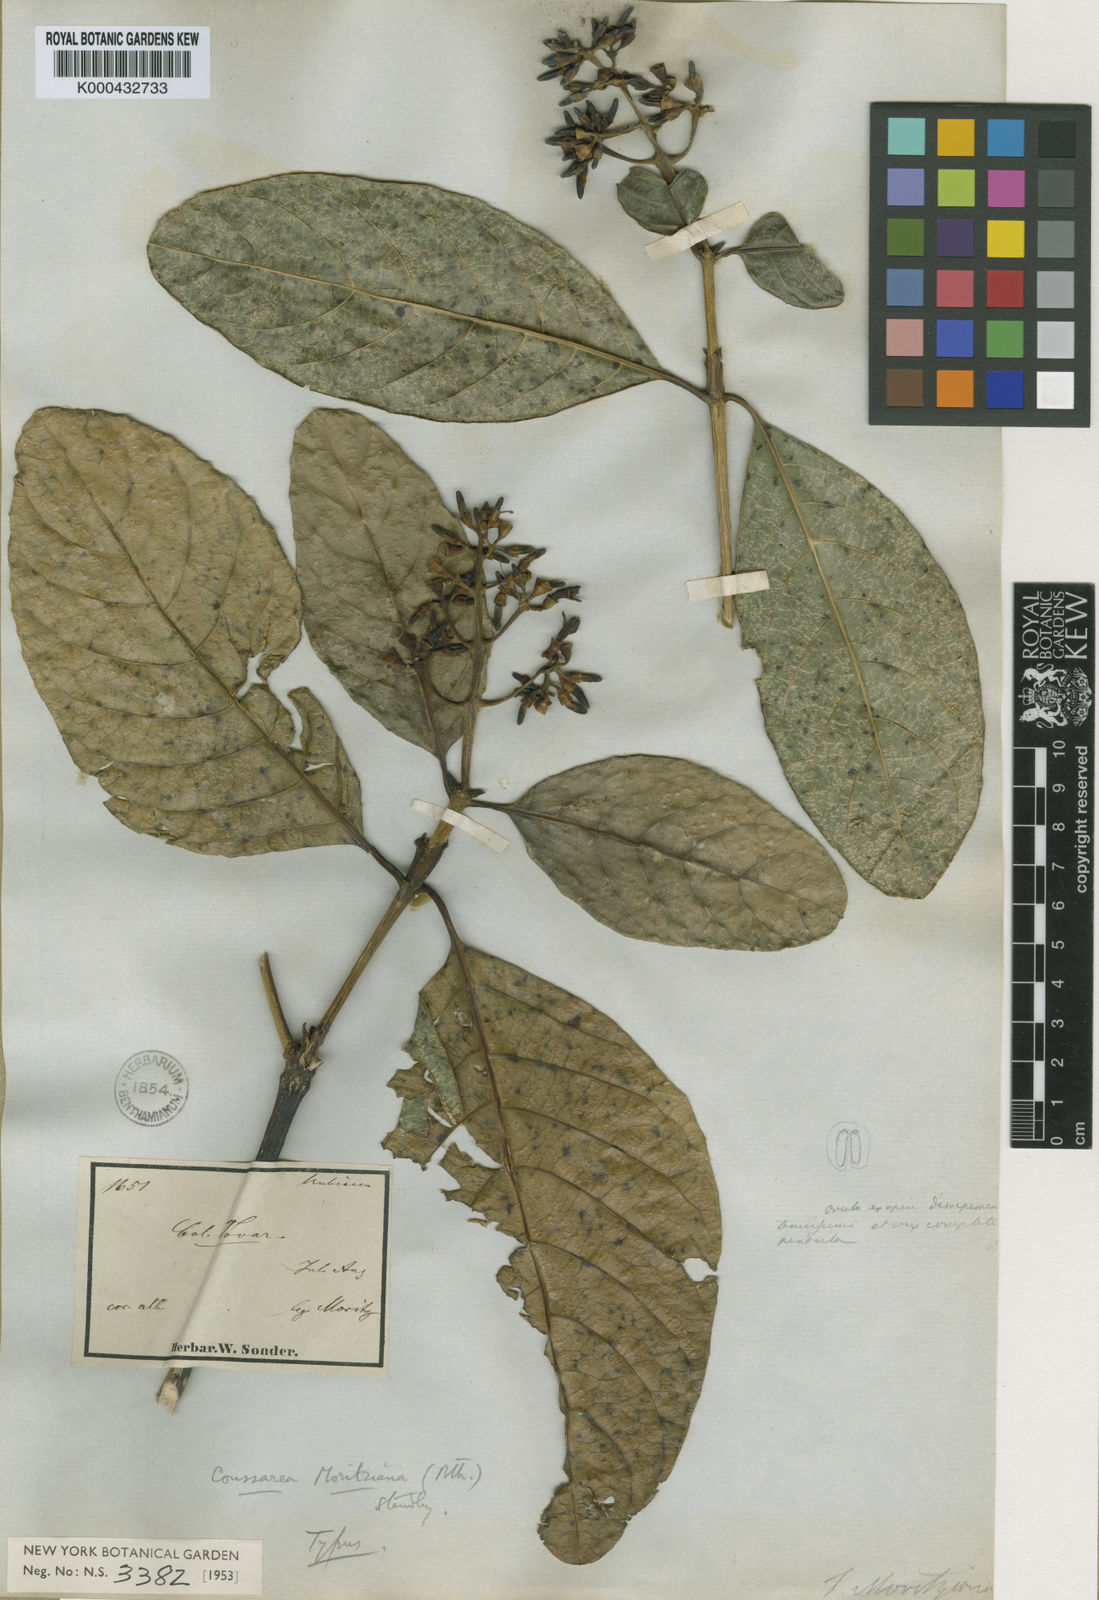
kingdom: Plantae
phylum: Tracheophyta
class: Magnoliopsida
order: Gentianales
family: Rubiaceae
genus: Coussarea
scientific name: Coussarea moritziana
